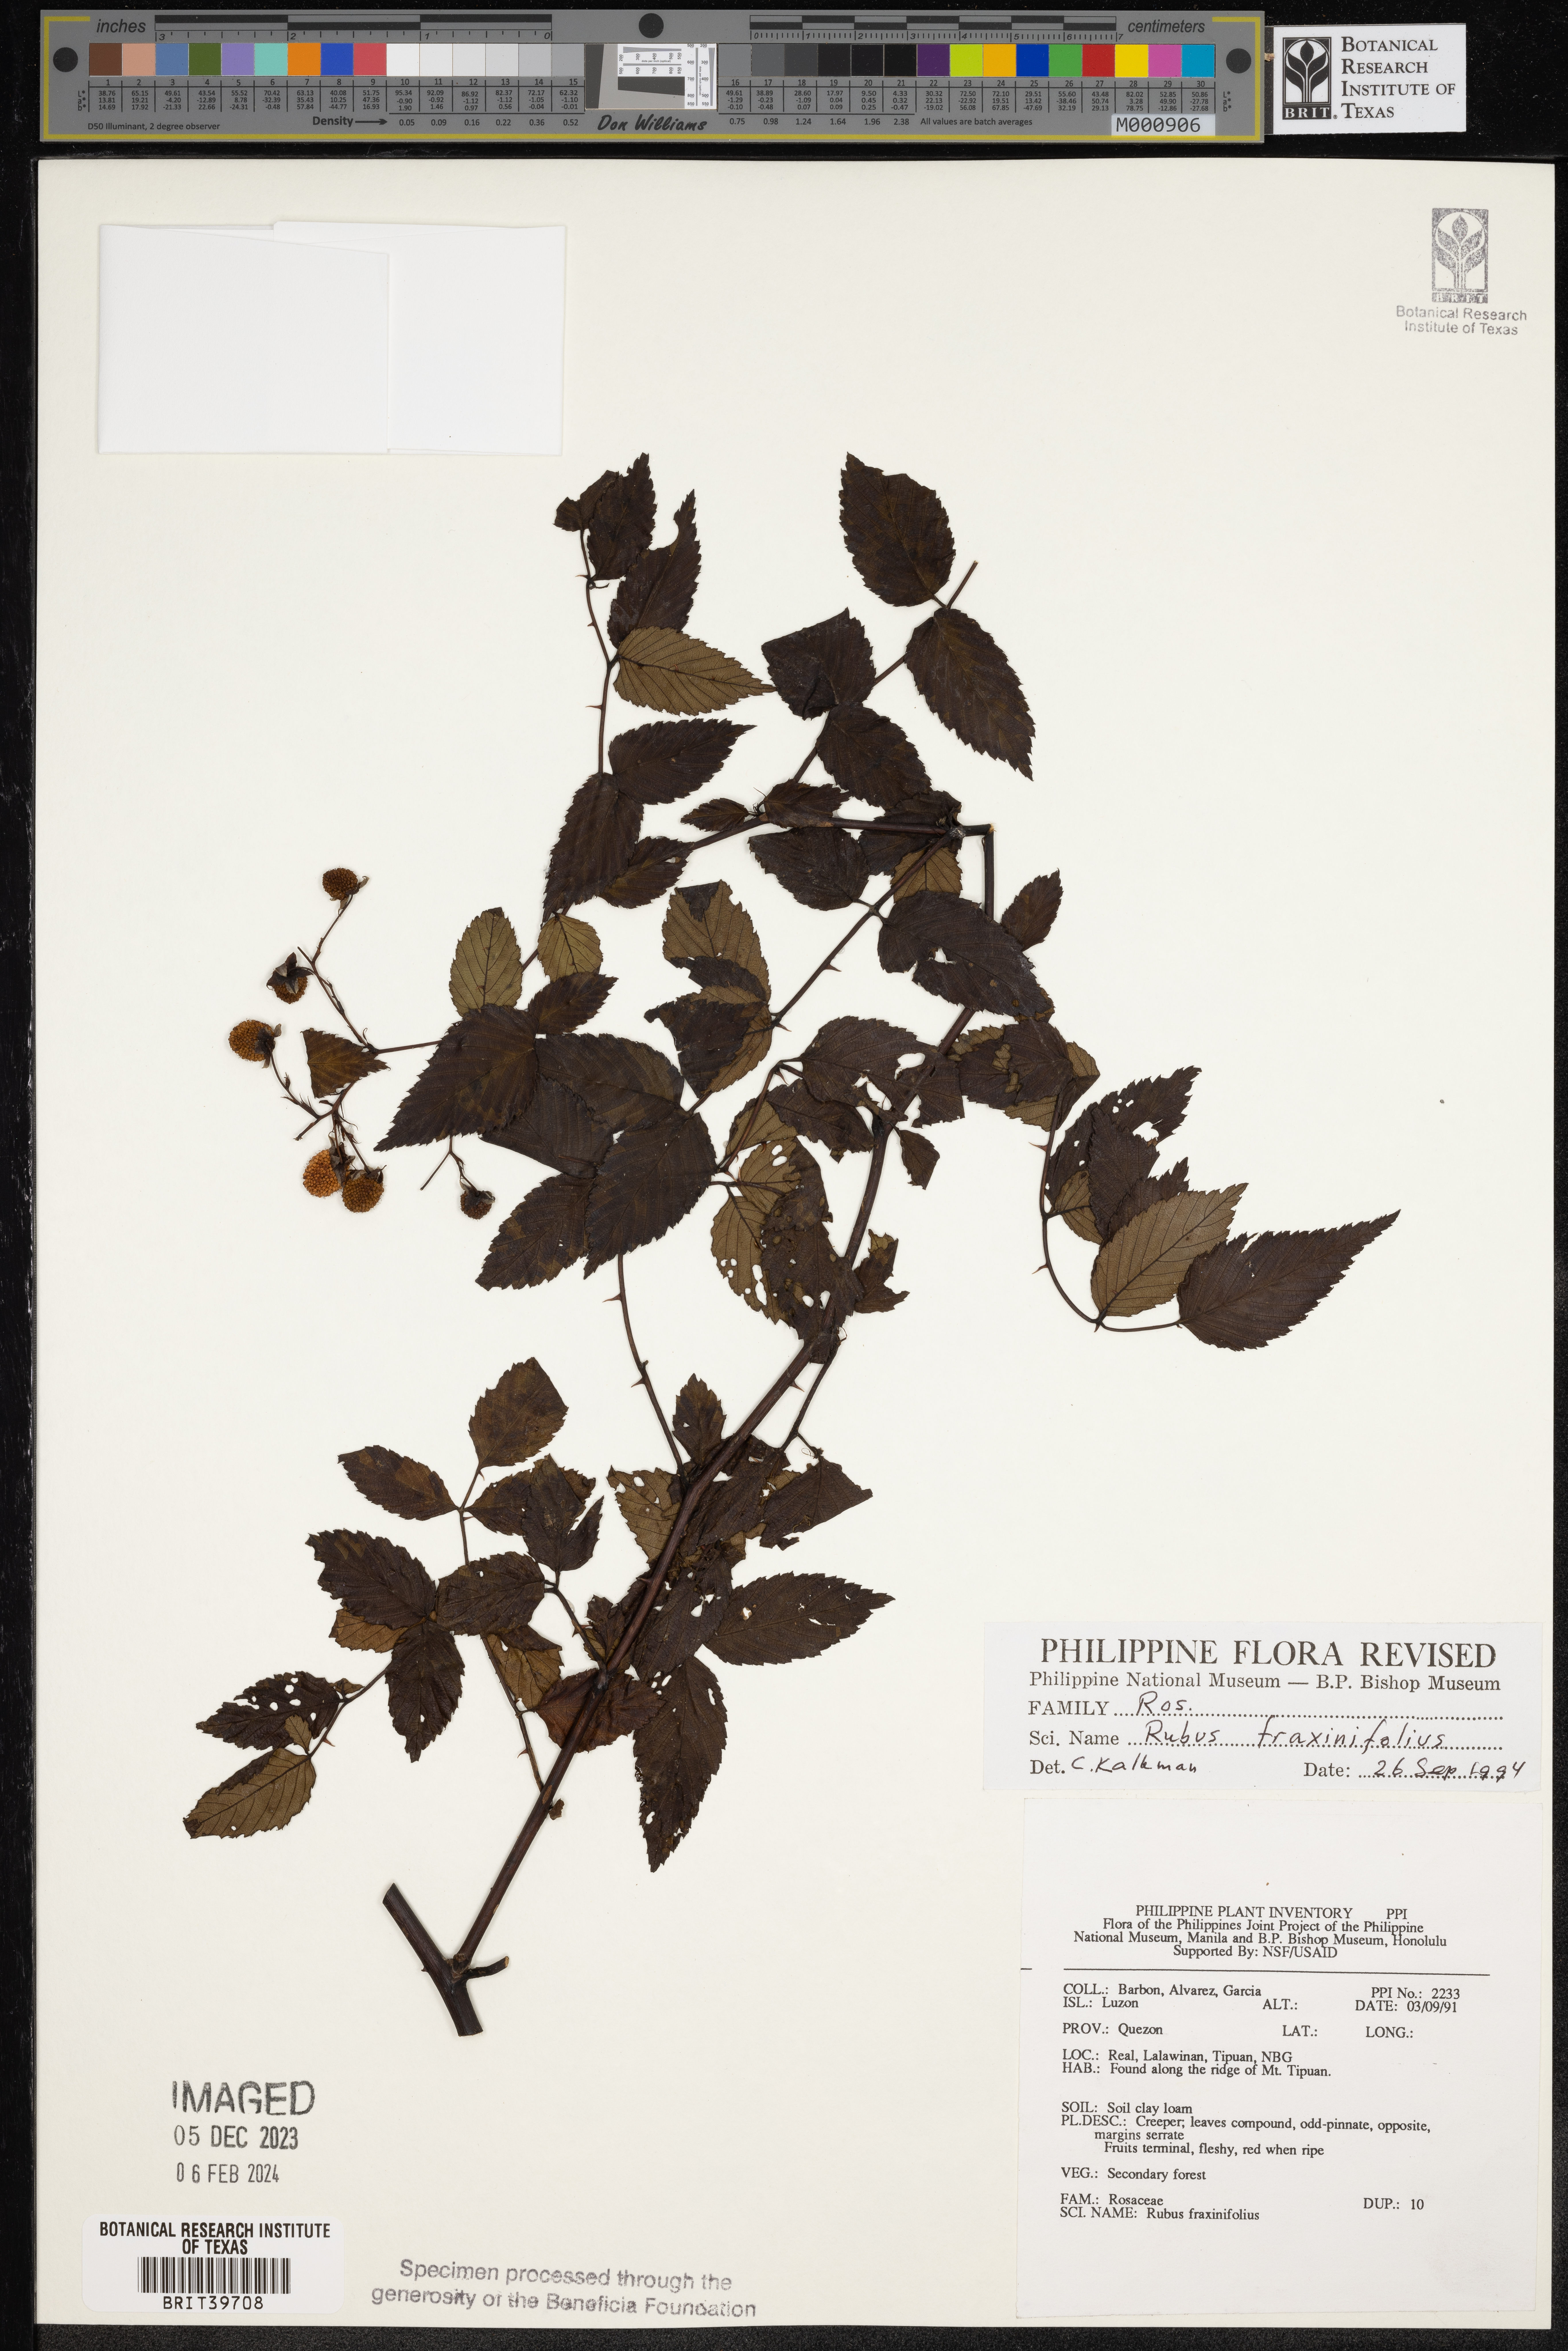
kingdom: Plantae
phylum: Tracheophyta
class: Magnoliopsida
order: Rosales
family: Rosaceae
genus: Rubus
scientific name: Rubus fraxinifolius
